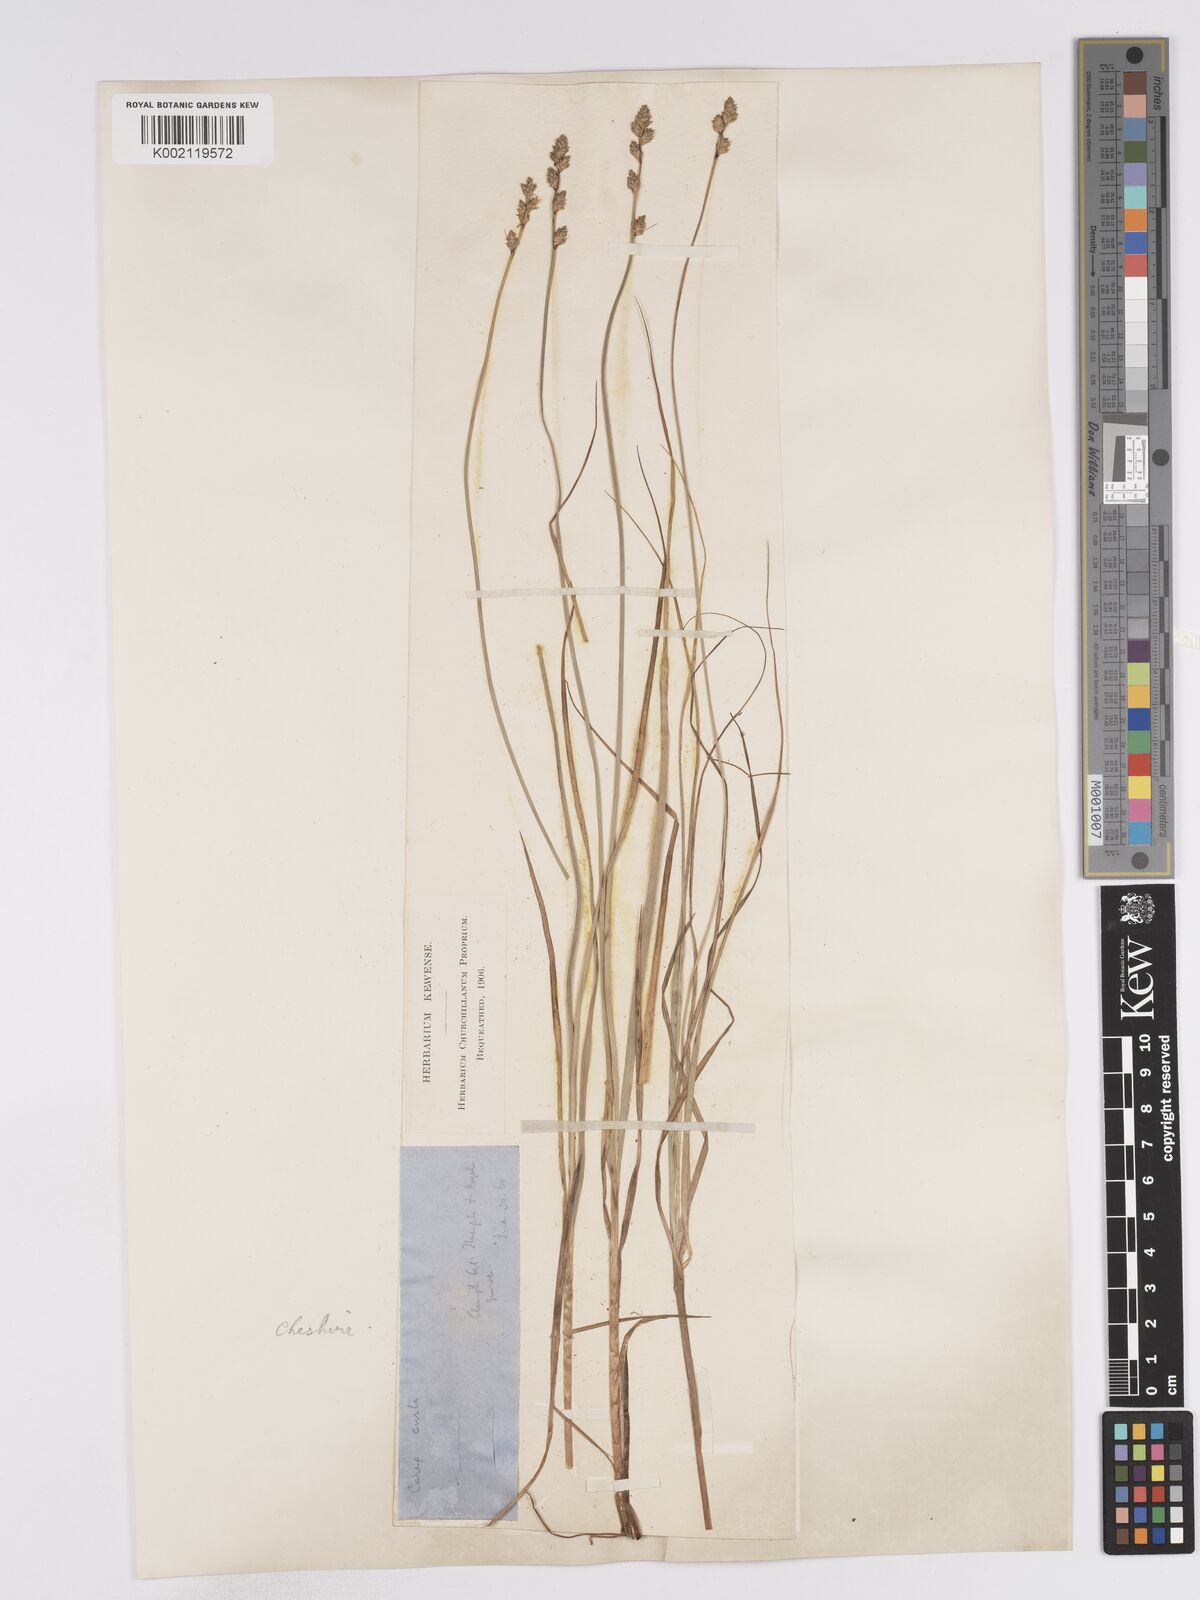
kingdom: Plantae
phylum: Tracheophyta
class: Liliopsida
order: Poales
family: Cyperaceae
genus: Carex
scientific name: Carex curta
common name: White sedge
